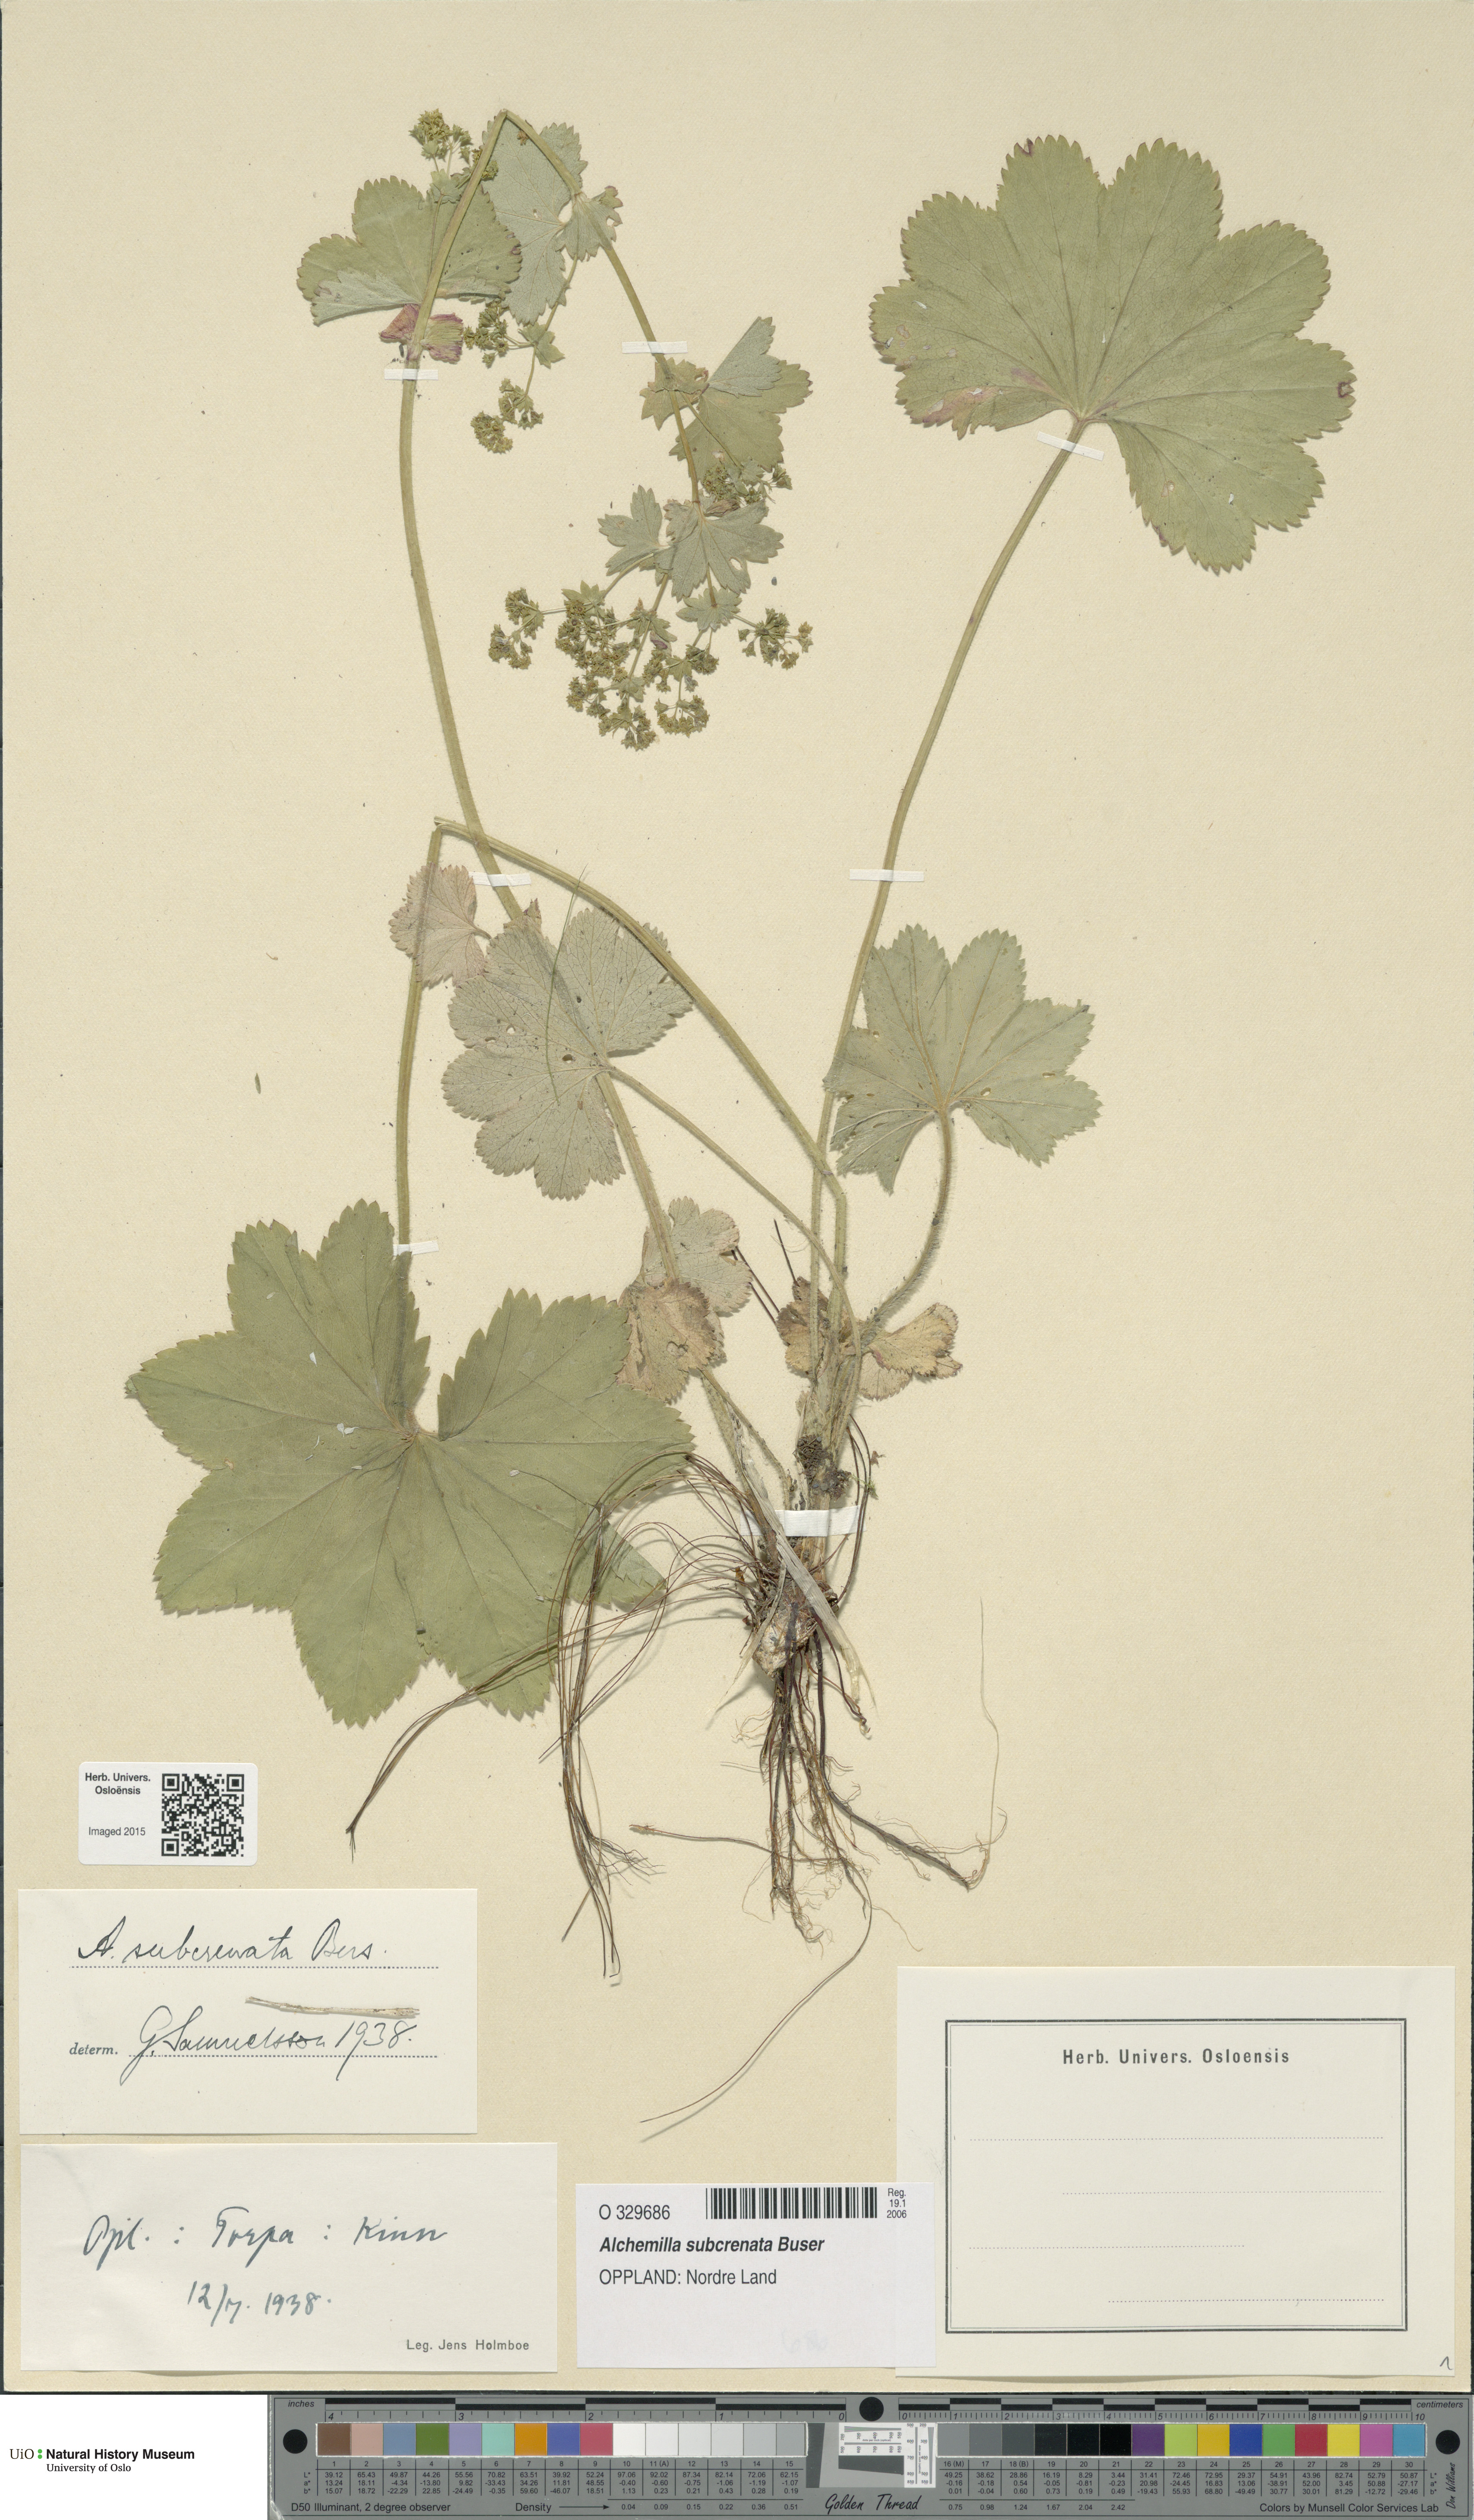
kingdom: Plantae
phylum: Tracheophyta
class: Magnoliopsida
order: Rosales
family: Rosaceae
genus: Alchemilla
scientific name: Alchemilla subcrenata
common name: Broadtooth lady's mantle
